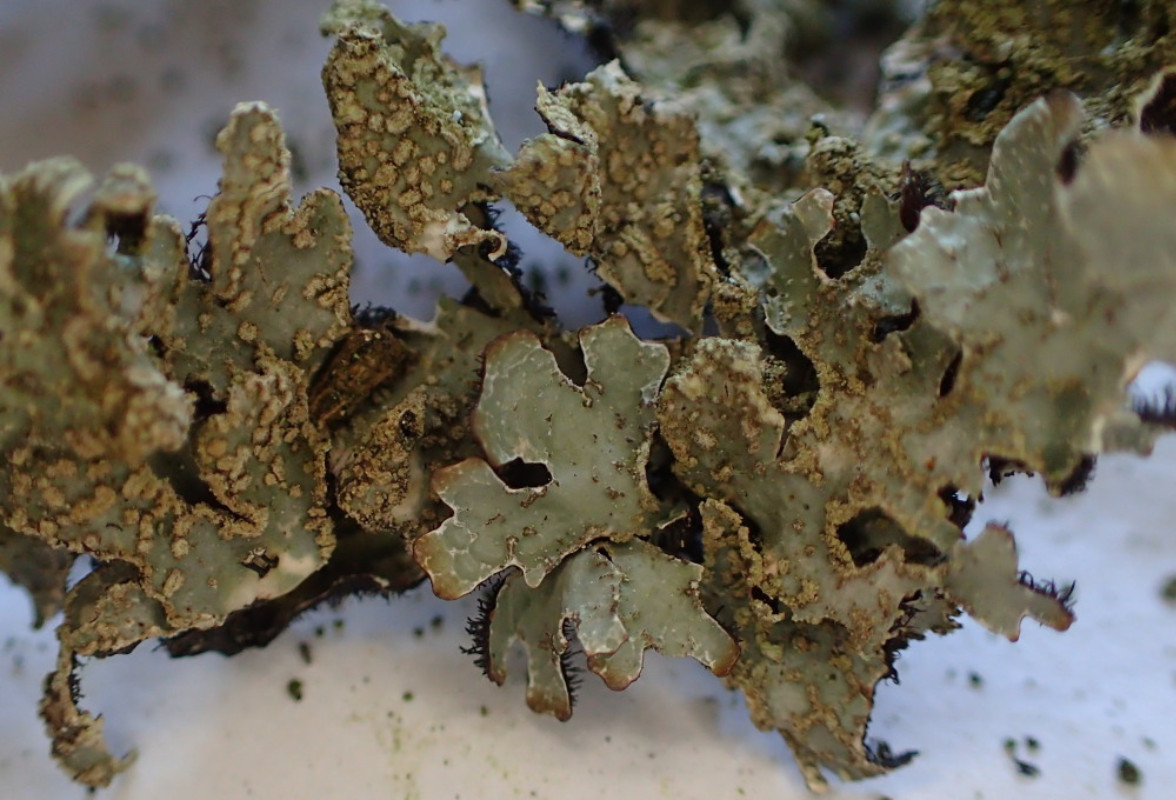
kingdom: Fungi
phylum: Ascomycota
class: Lecanoromycetes
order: Lecanorales
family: Parmeliaceae
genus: Parmelia
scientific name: Parmelia sulcata
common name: rynket skållav
